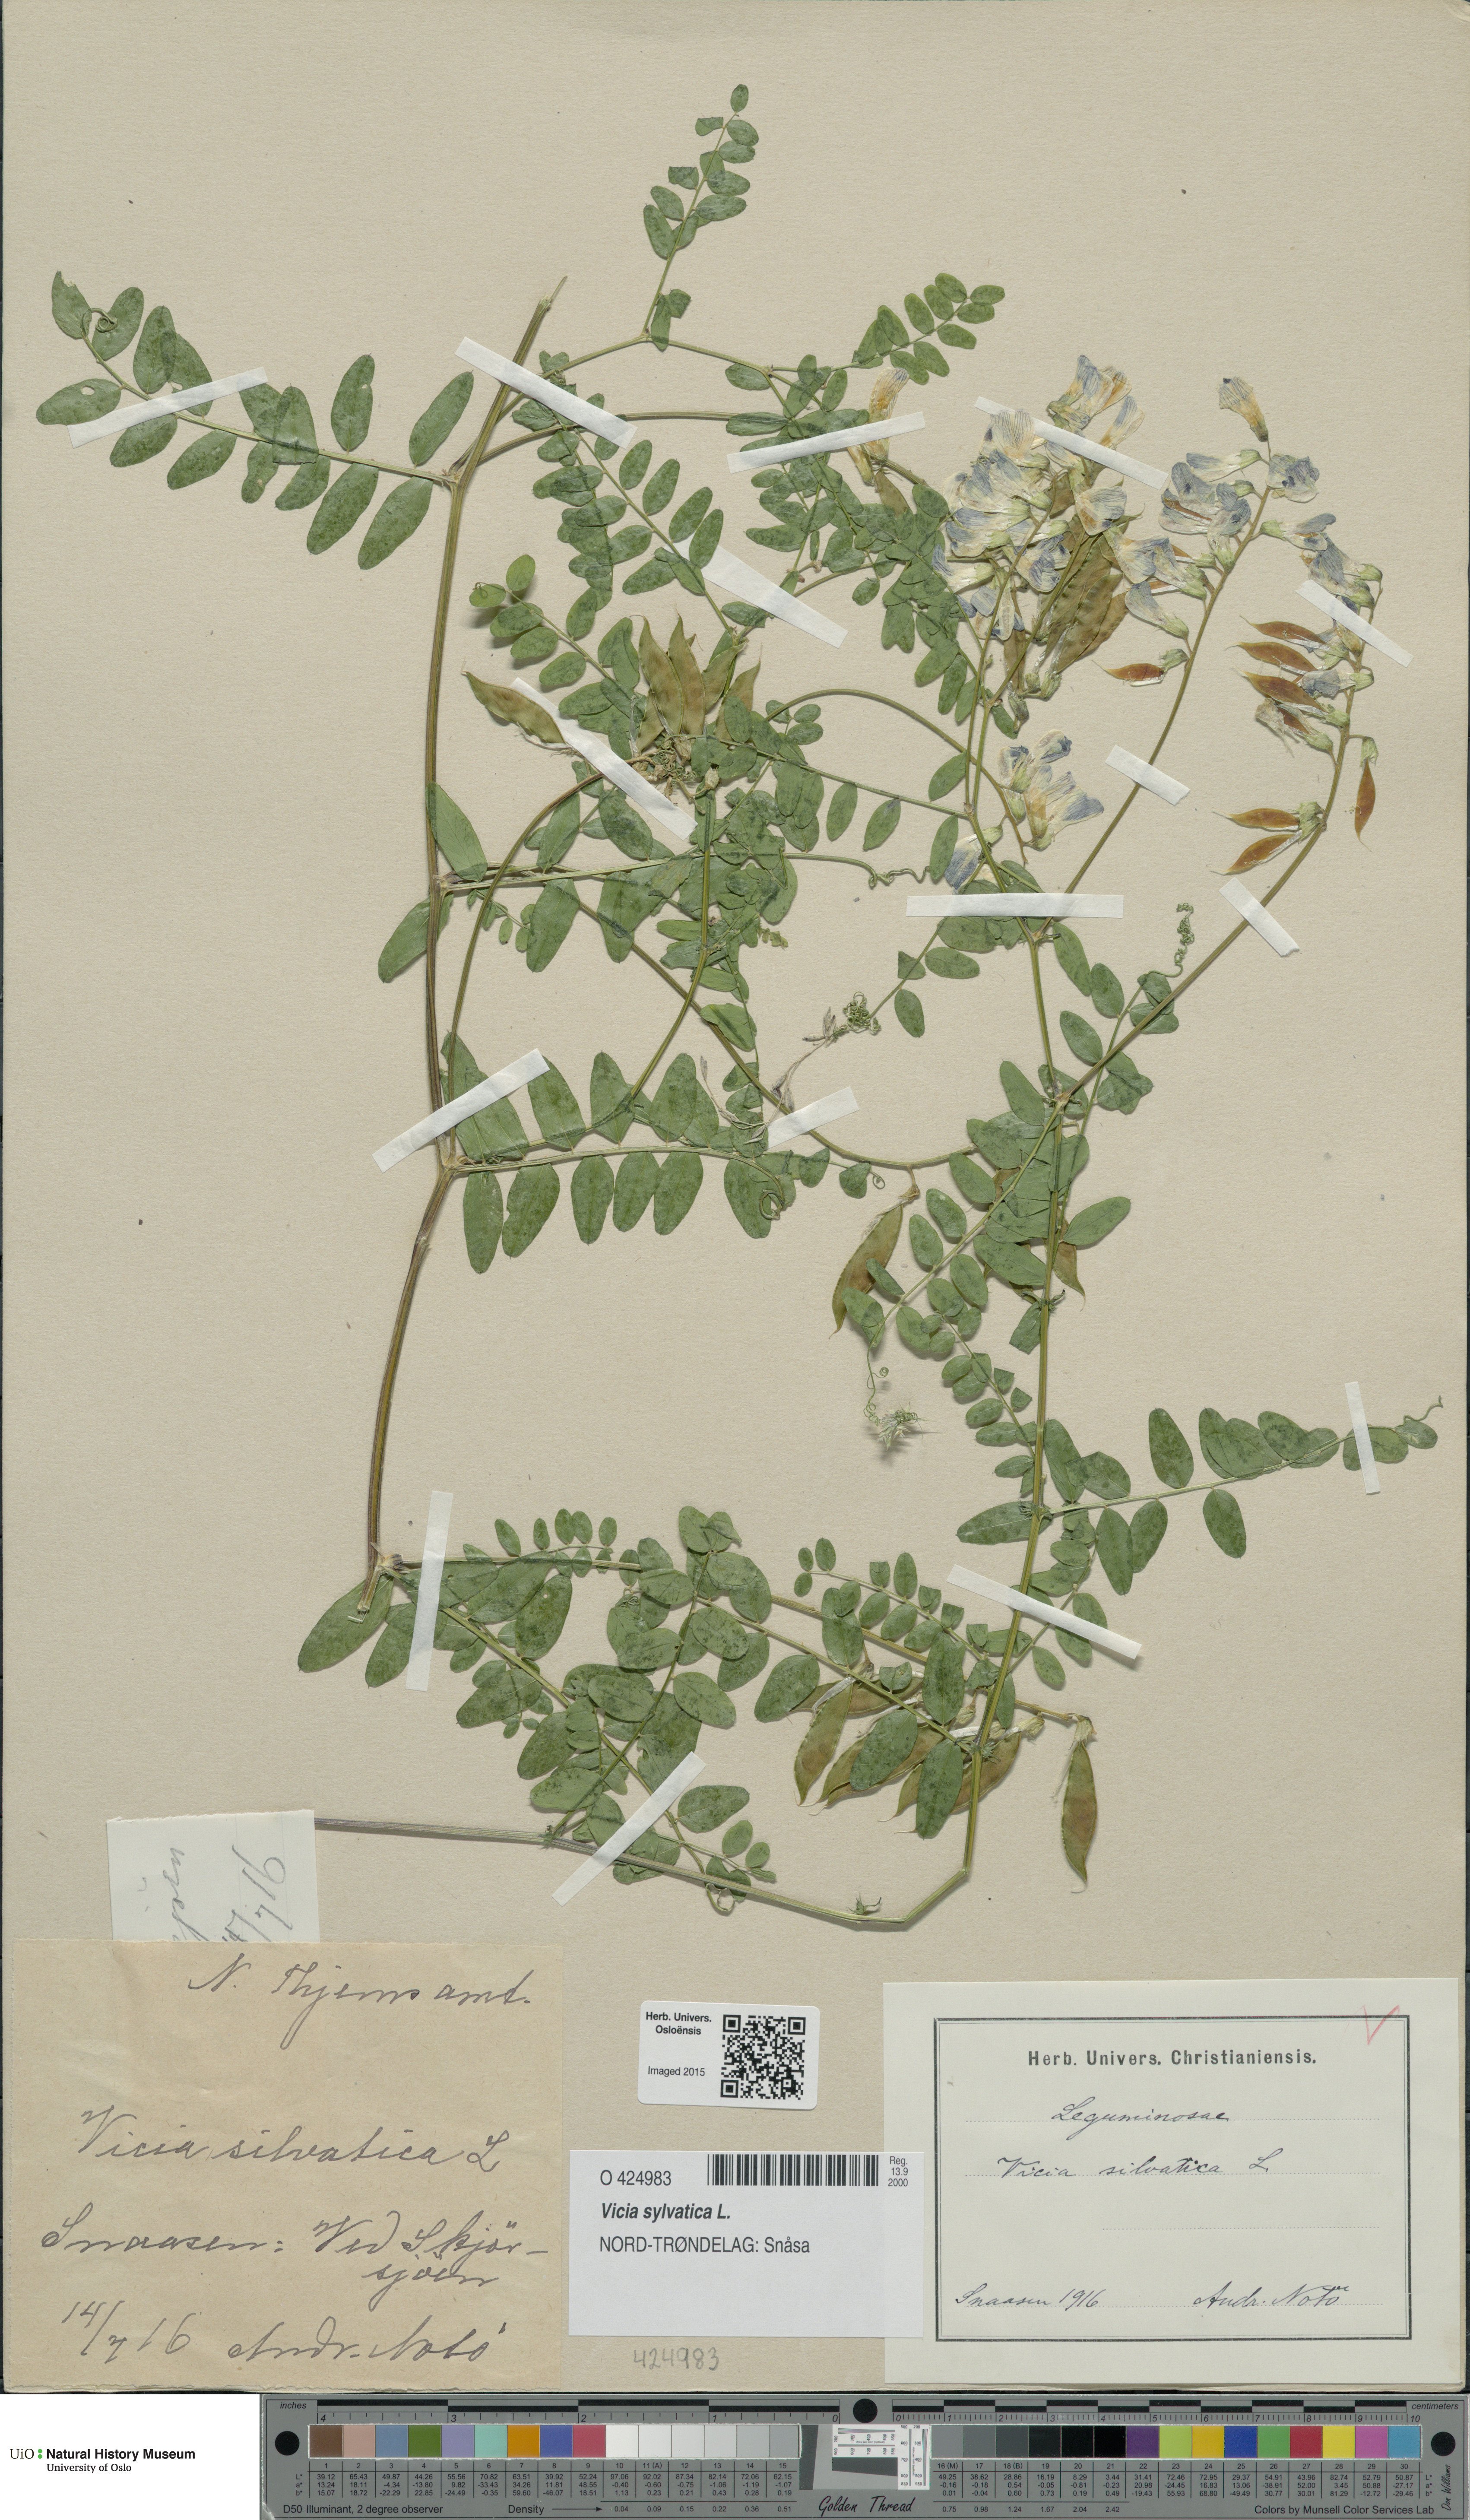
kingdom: Plantae
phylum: Tracheophyta
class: Magnoliopsida
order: Fabales
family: Fabaceae
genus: Vicia
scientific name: Vicia sylvatica
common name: Wood vetch
